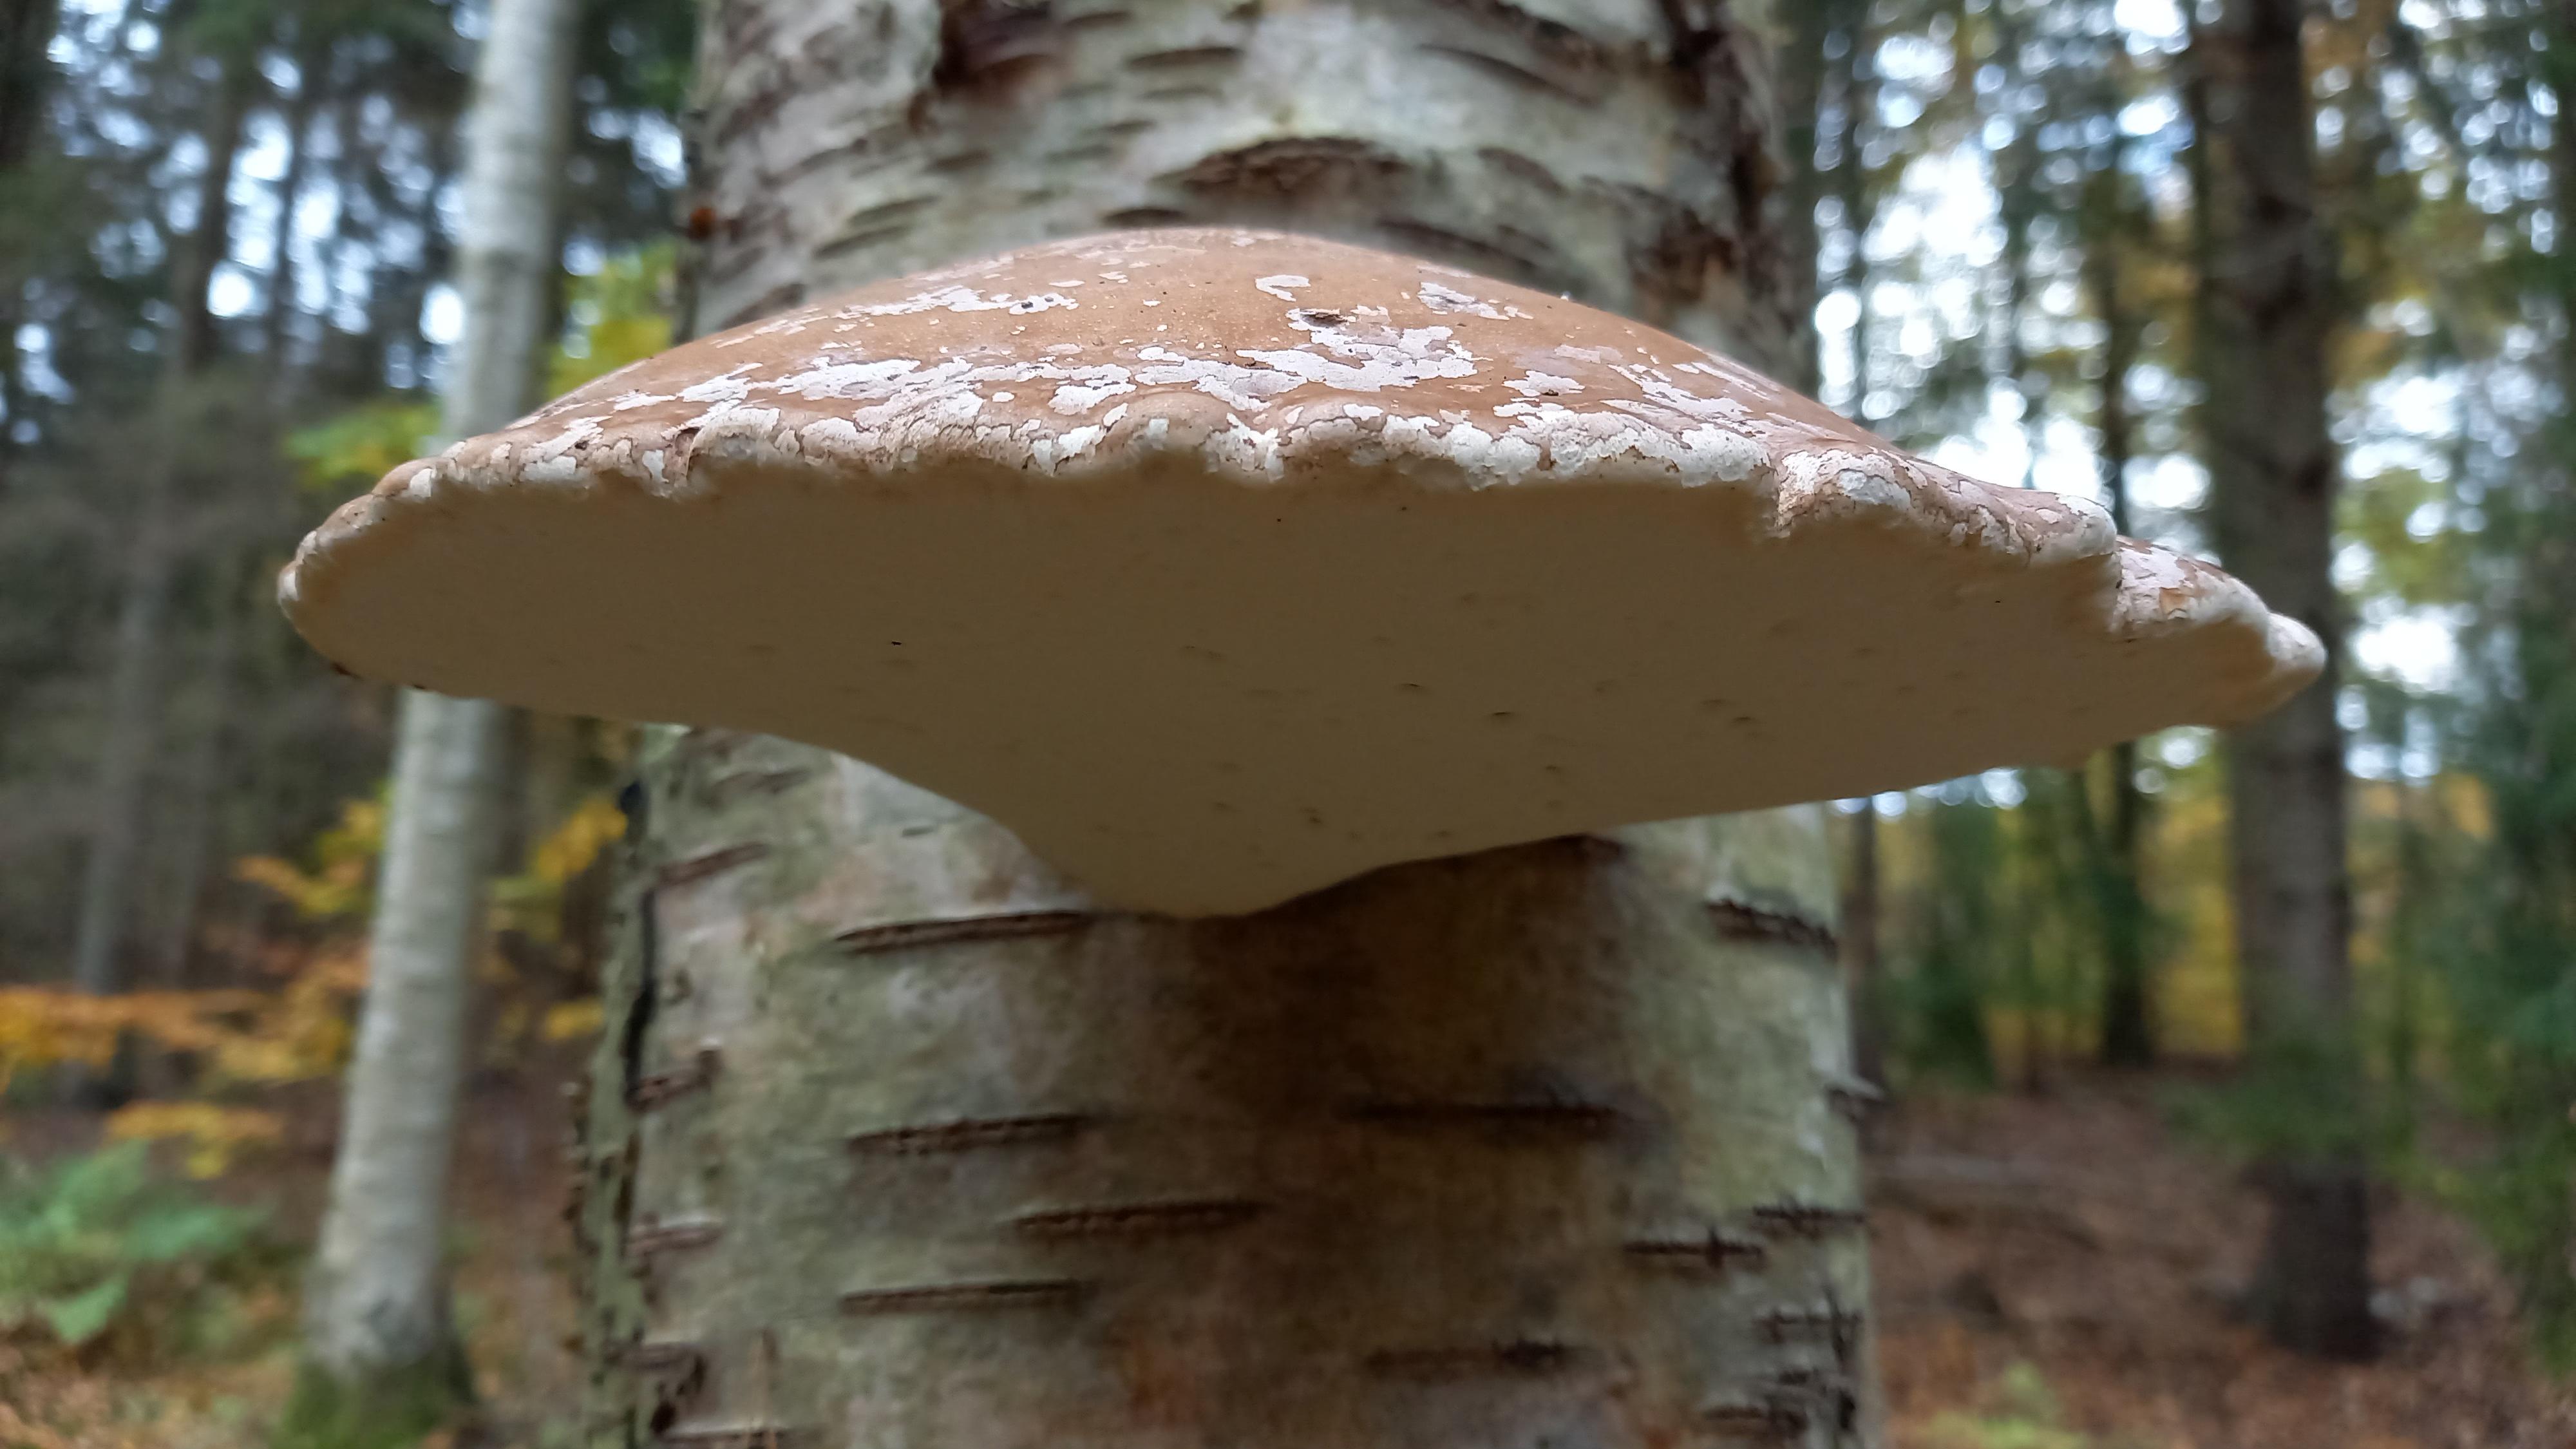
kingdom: Fungi
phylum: Basidiomycota
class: Agaricomycetes
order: Polyporales
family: Fomitopsidaceae
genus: Fomitopsis
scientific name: Fomitopsis betulina
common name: birkeporesvamp
